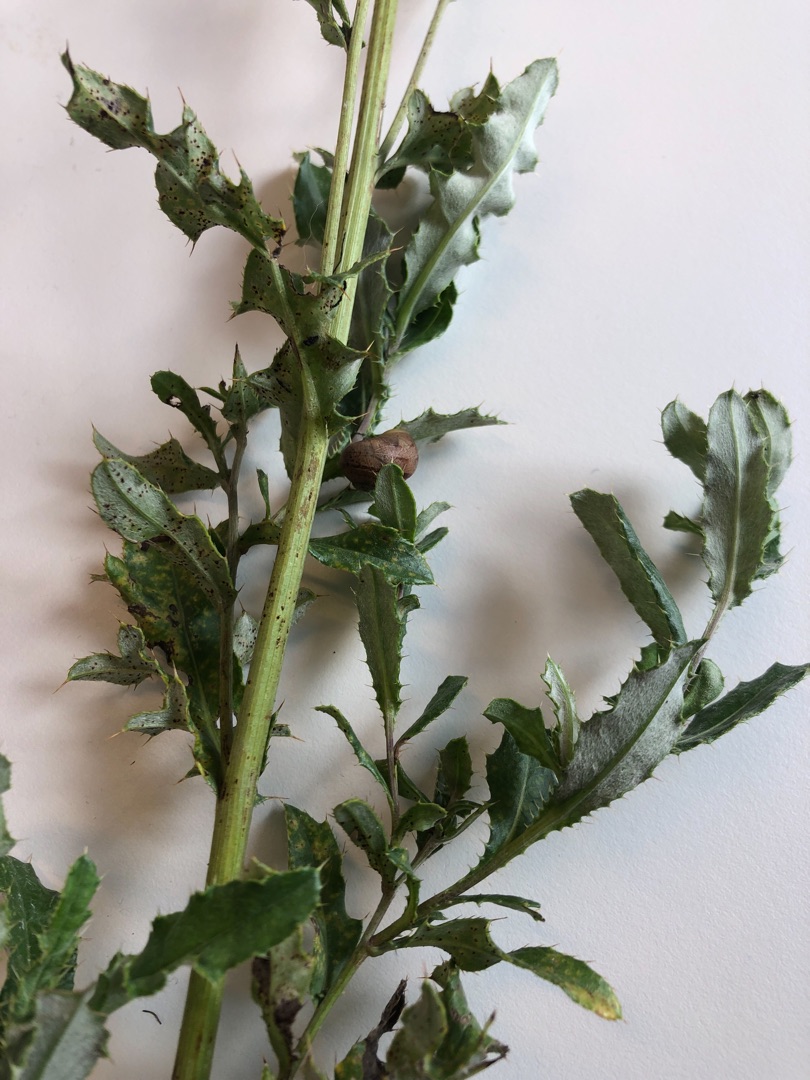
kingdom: Plantae
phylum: Tracheophyta
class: Magnoliopsida
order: Asterales
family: Asteraceae
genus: Cirsium
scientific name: Cirsium arvense
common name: Ager-tidsel
